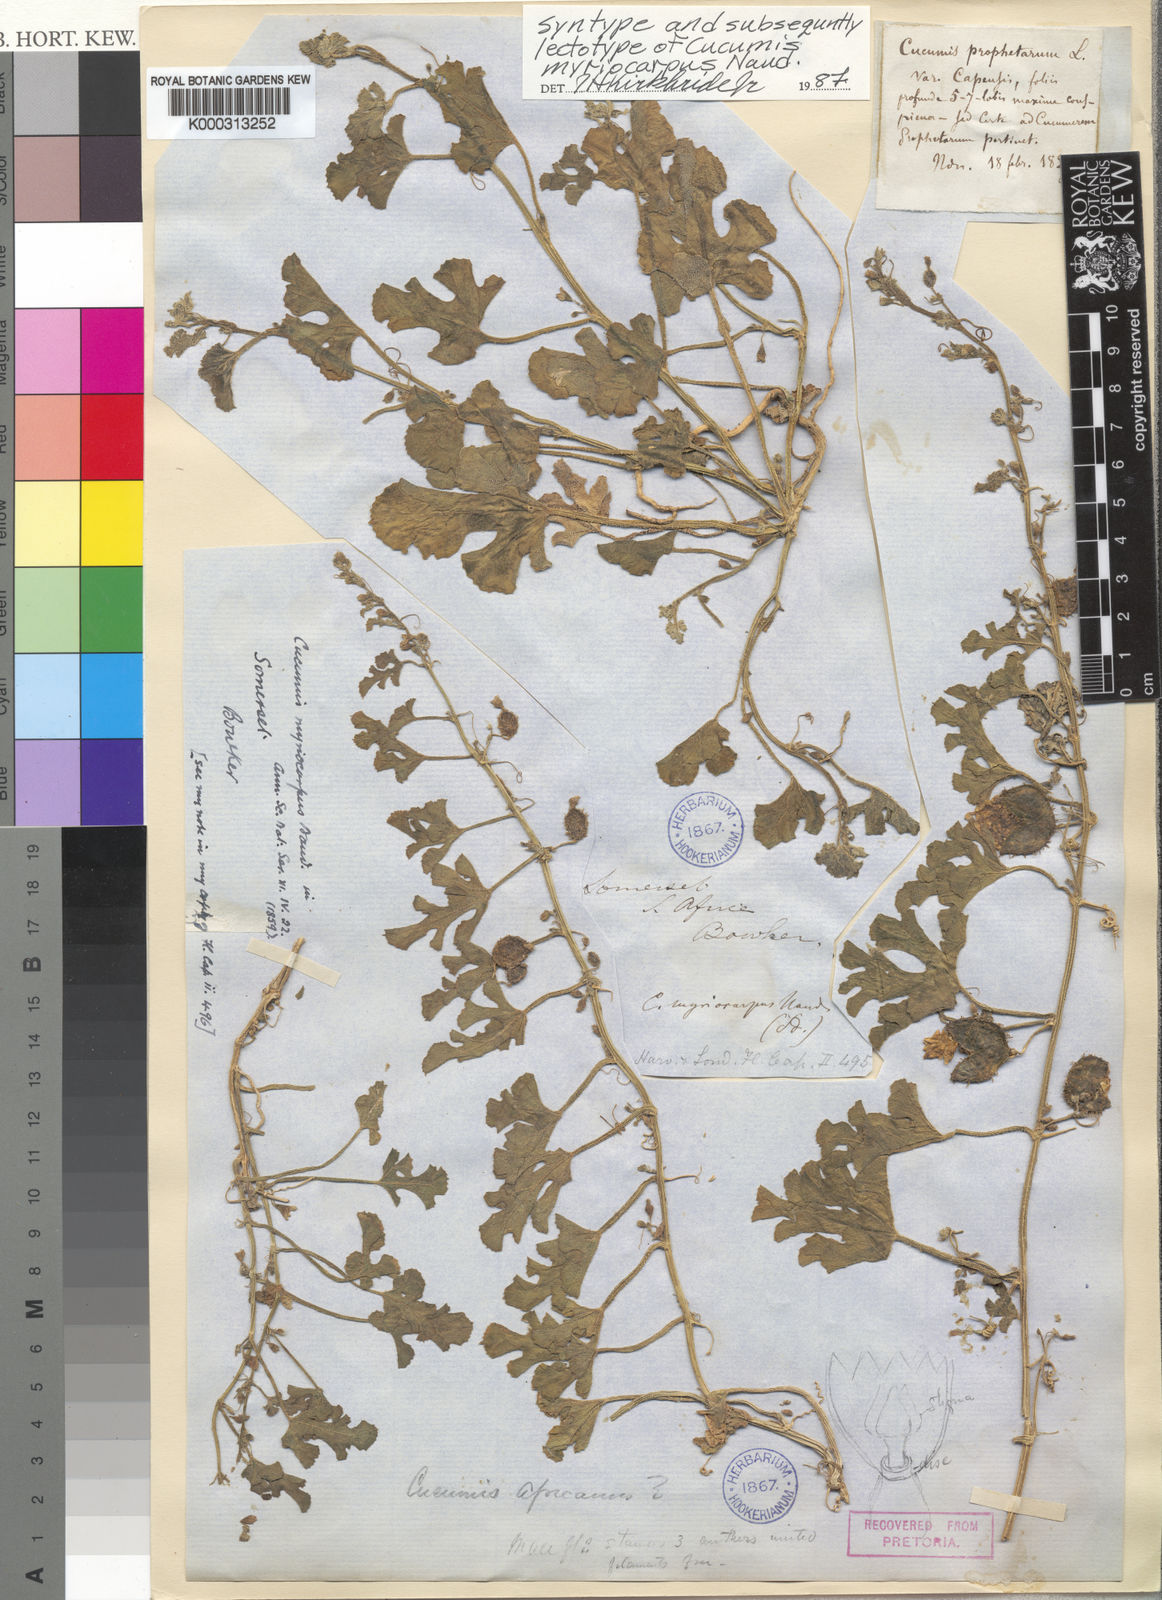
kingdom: Plantae
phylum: Tracheophyta
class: Magnoliopsida
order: Cucurbitales
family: Cucurbitaceae
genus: Cucumis
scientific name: Cucumis myriocarpus
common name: Gooseberry cucumber
